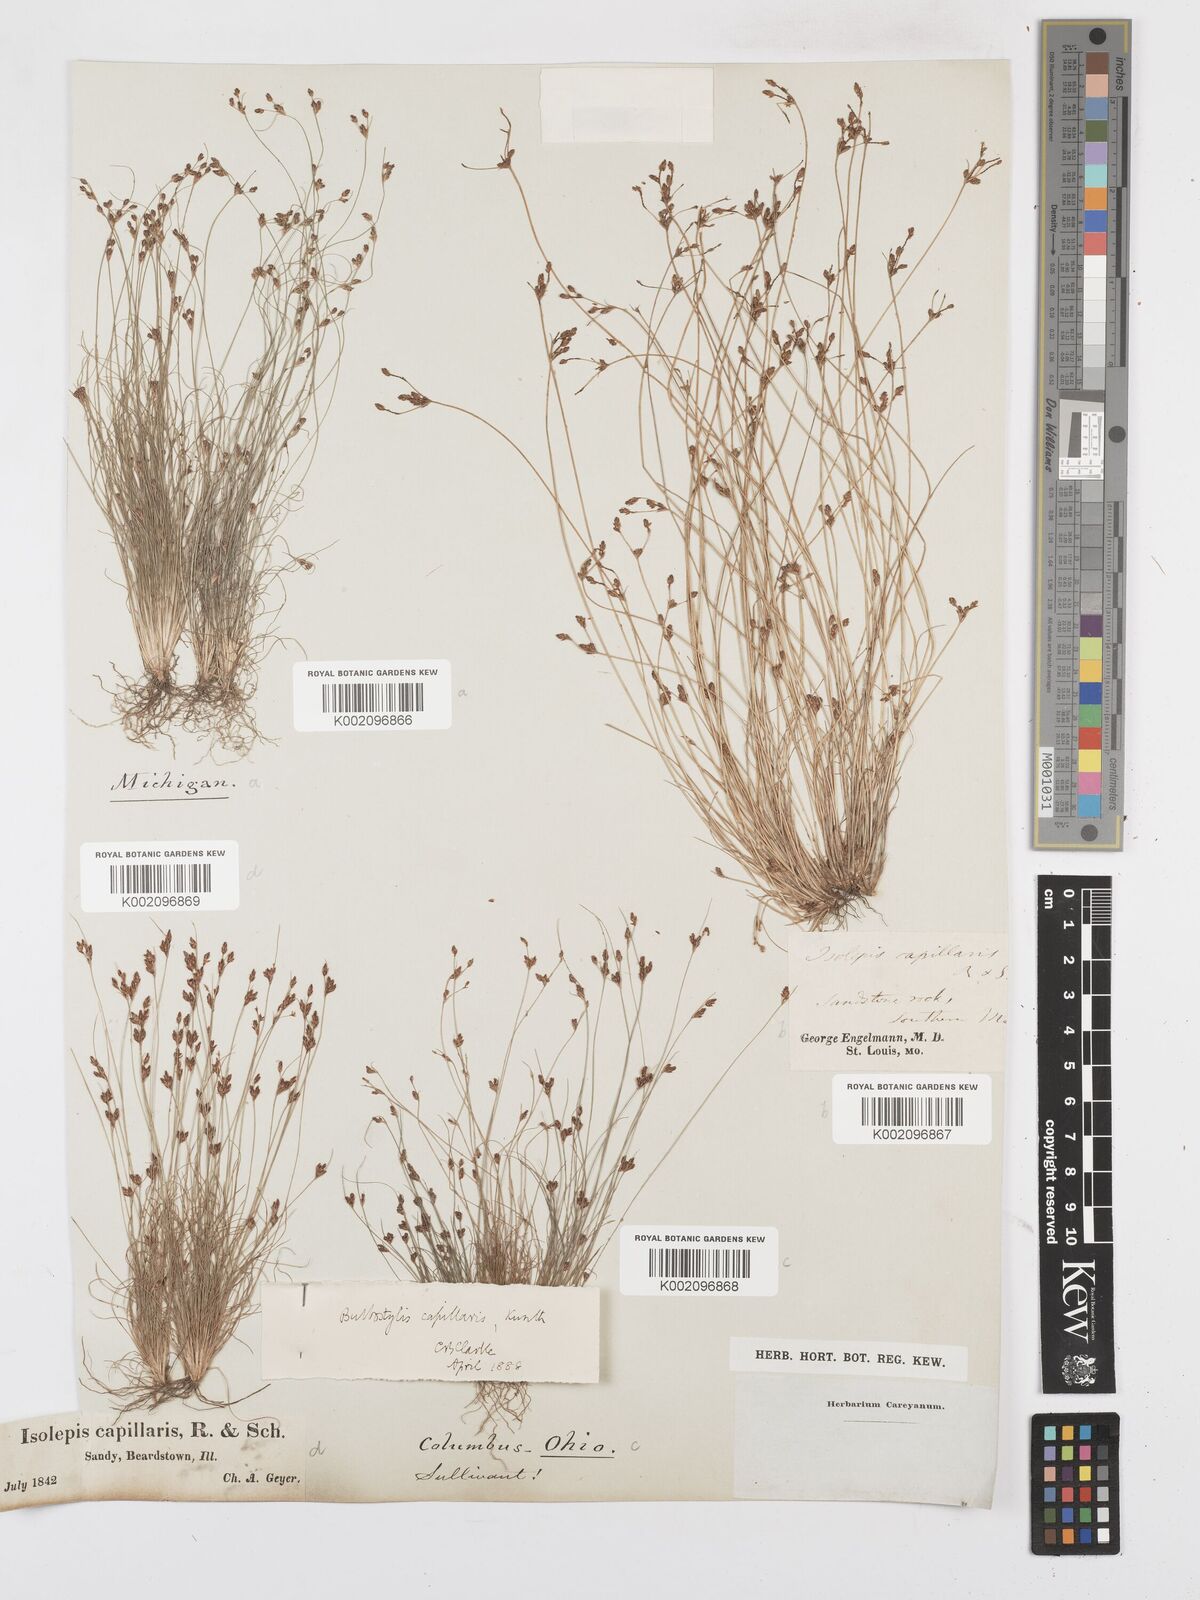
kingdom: Plantae
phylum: Tracheophyta
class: Liliopsida
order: Poales
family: Cyperaceae
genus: Bulbostylis
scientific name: Bulbostylis capillaris
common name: Densetuft hairsedge
